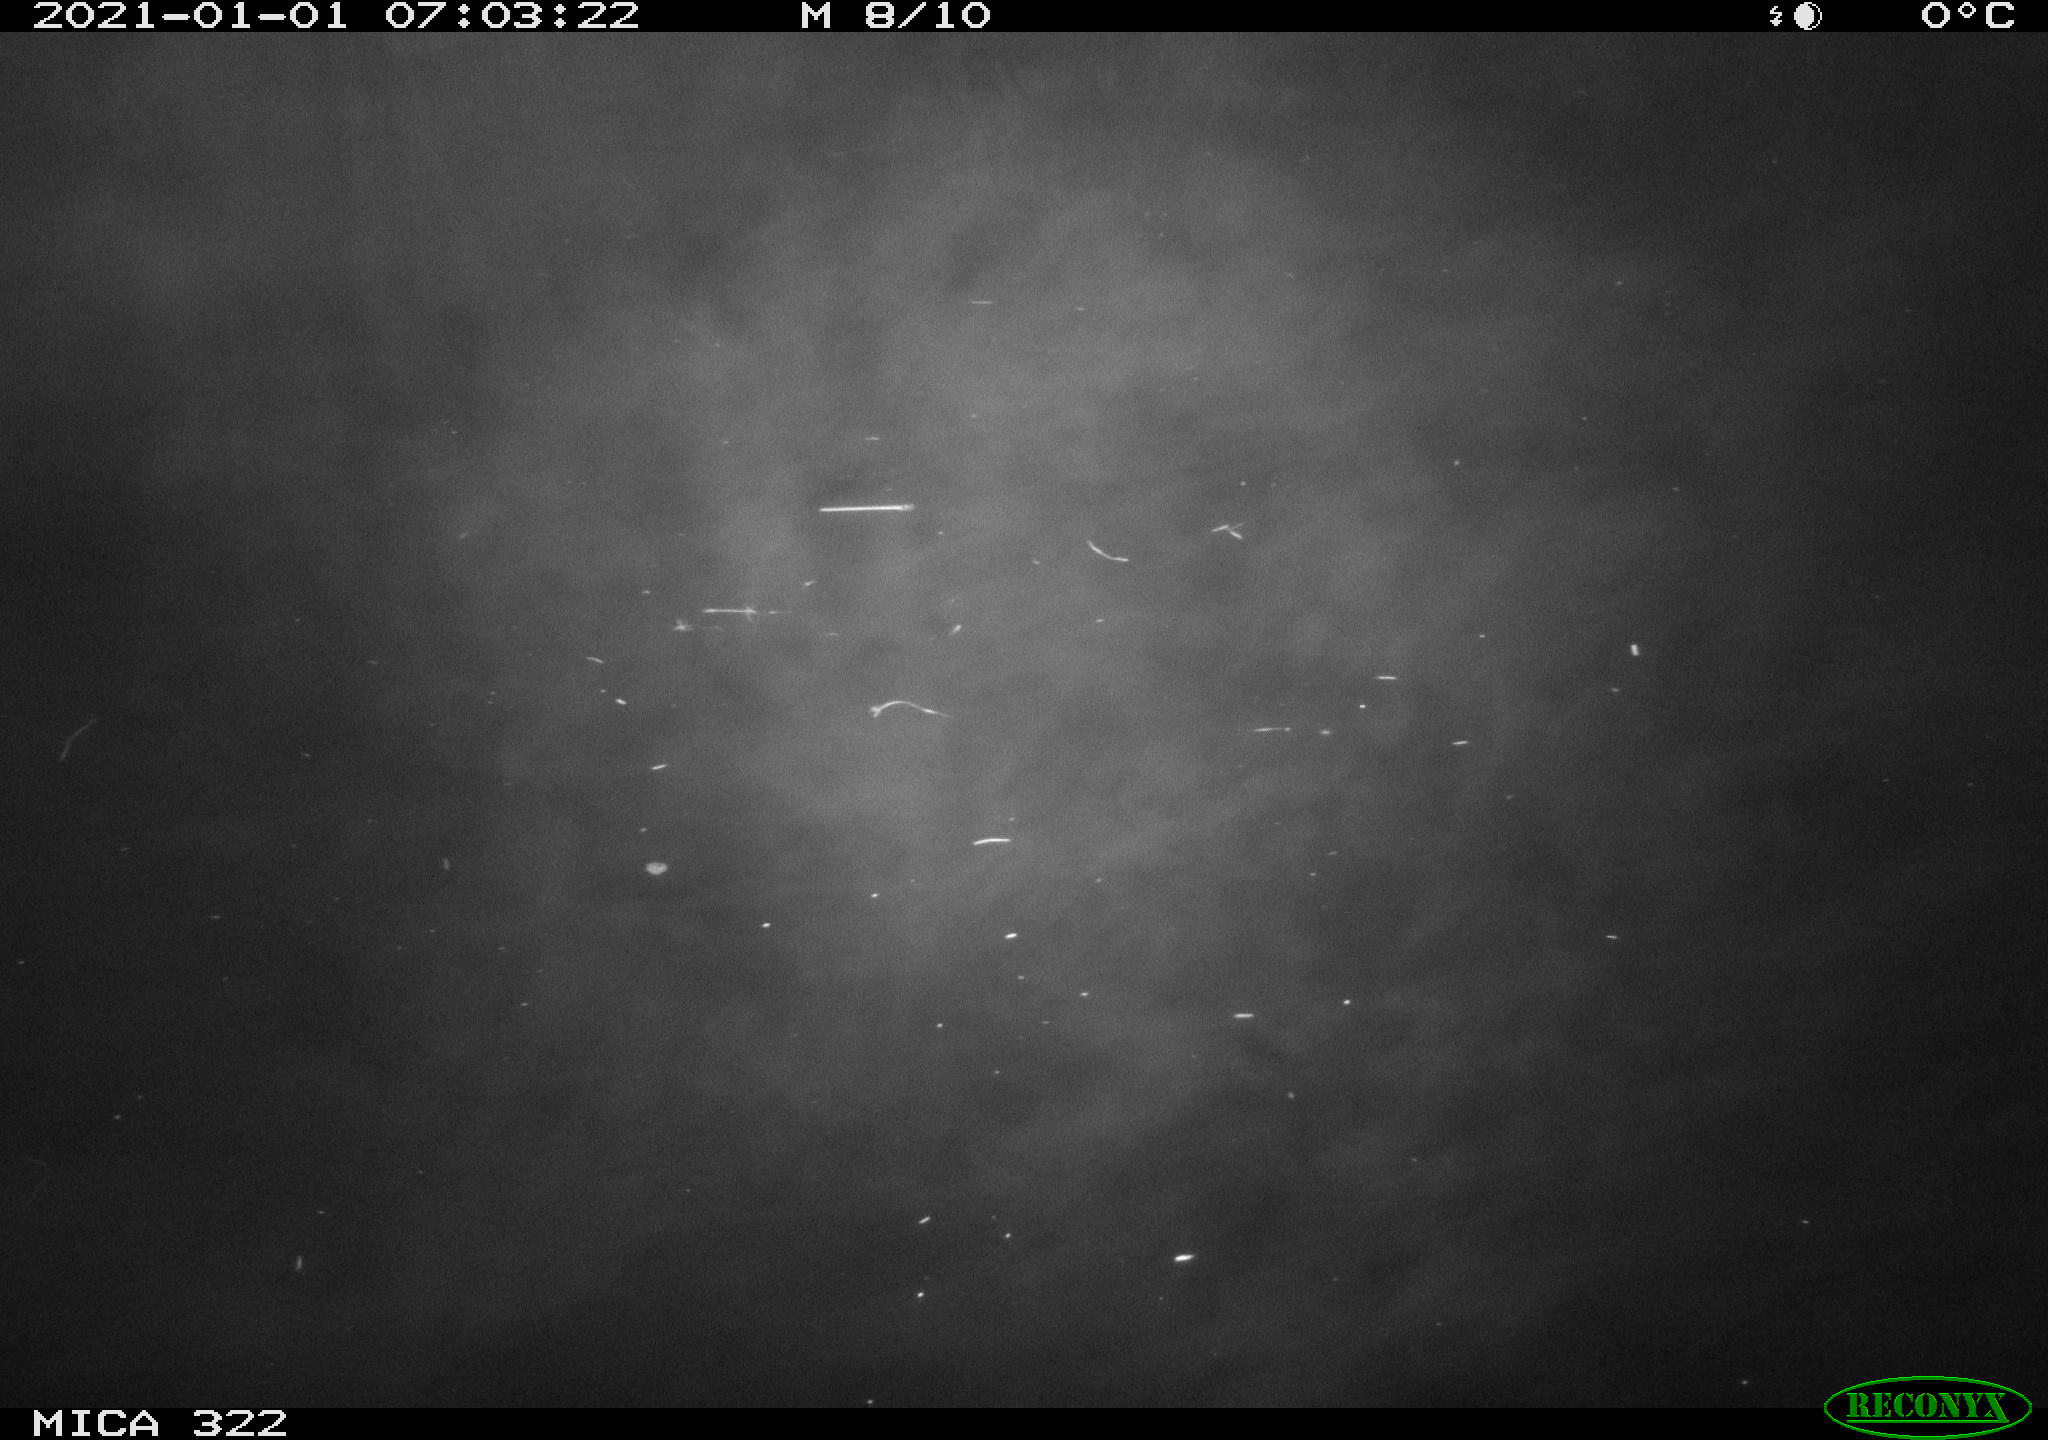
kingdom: Animalia
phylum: Chordata
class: Mammalia
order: Rodentia
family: Muridae
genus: Rattus
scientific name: Rattus norvegicus
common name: Brown rat
